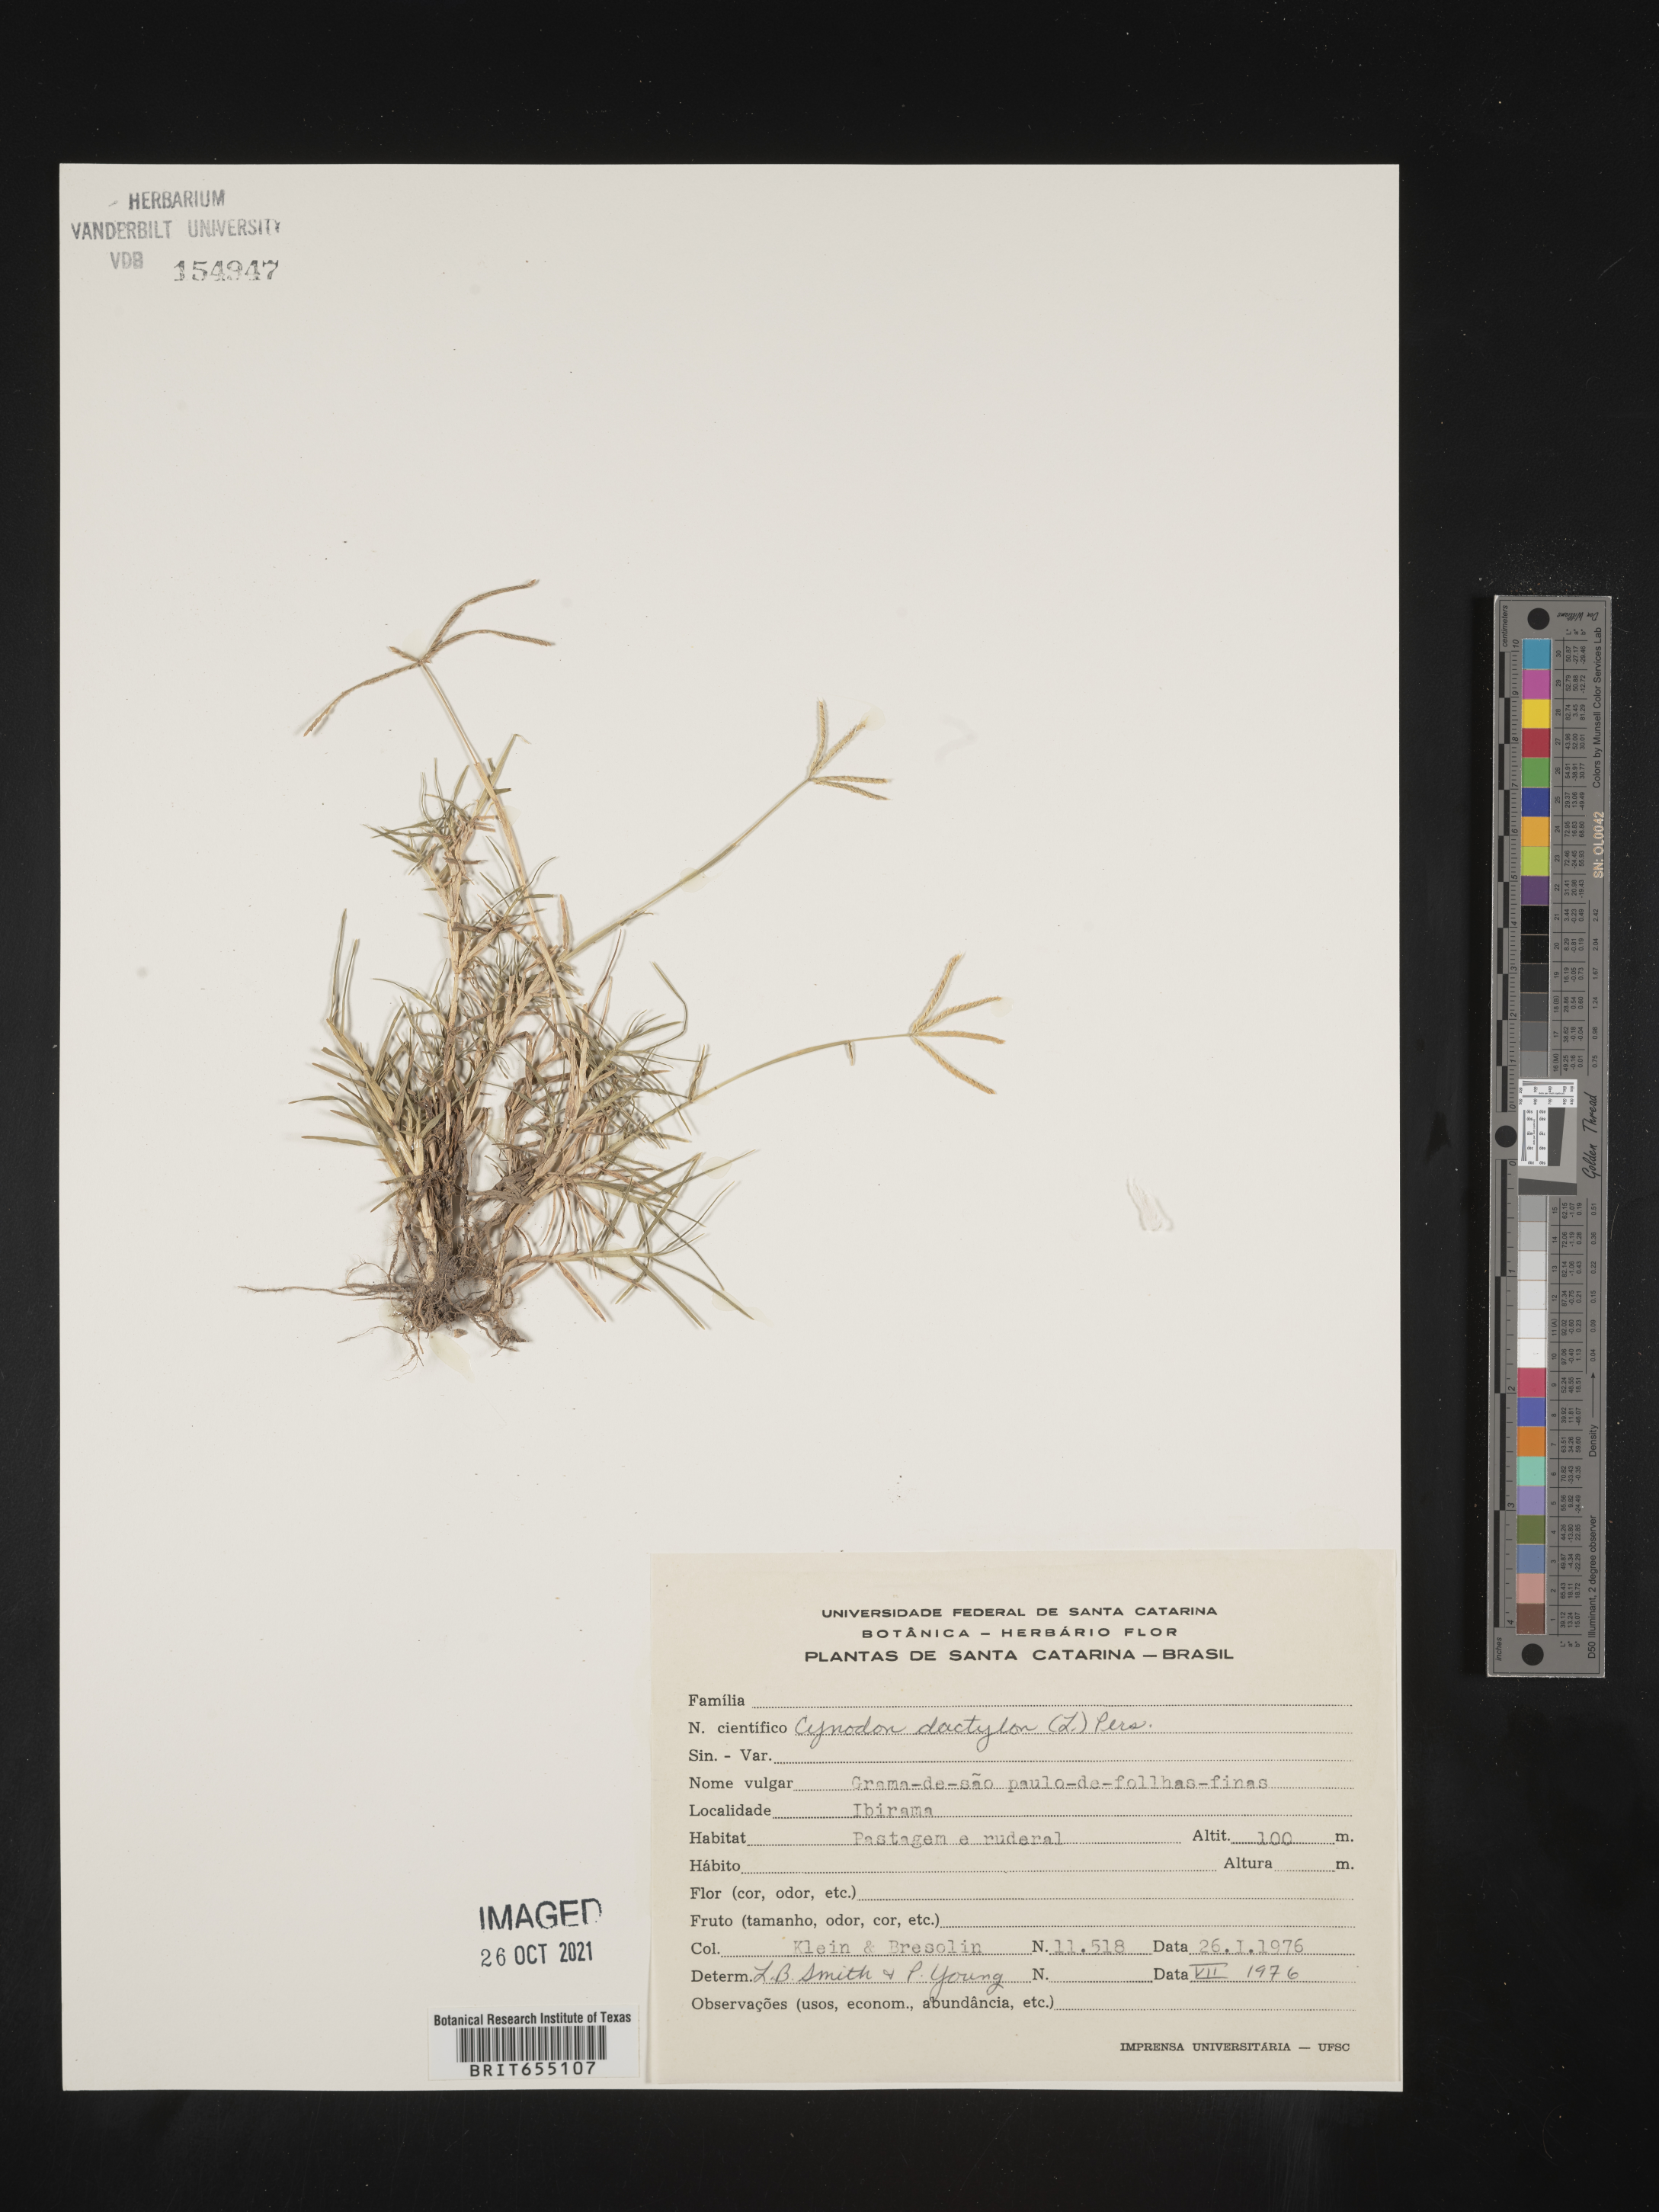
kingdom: Plantae
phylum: Tracheophyta
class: Liliopsida
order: Poales
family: Poaceae
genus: Cynodon
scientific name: Cynodon
